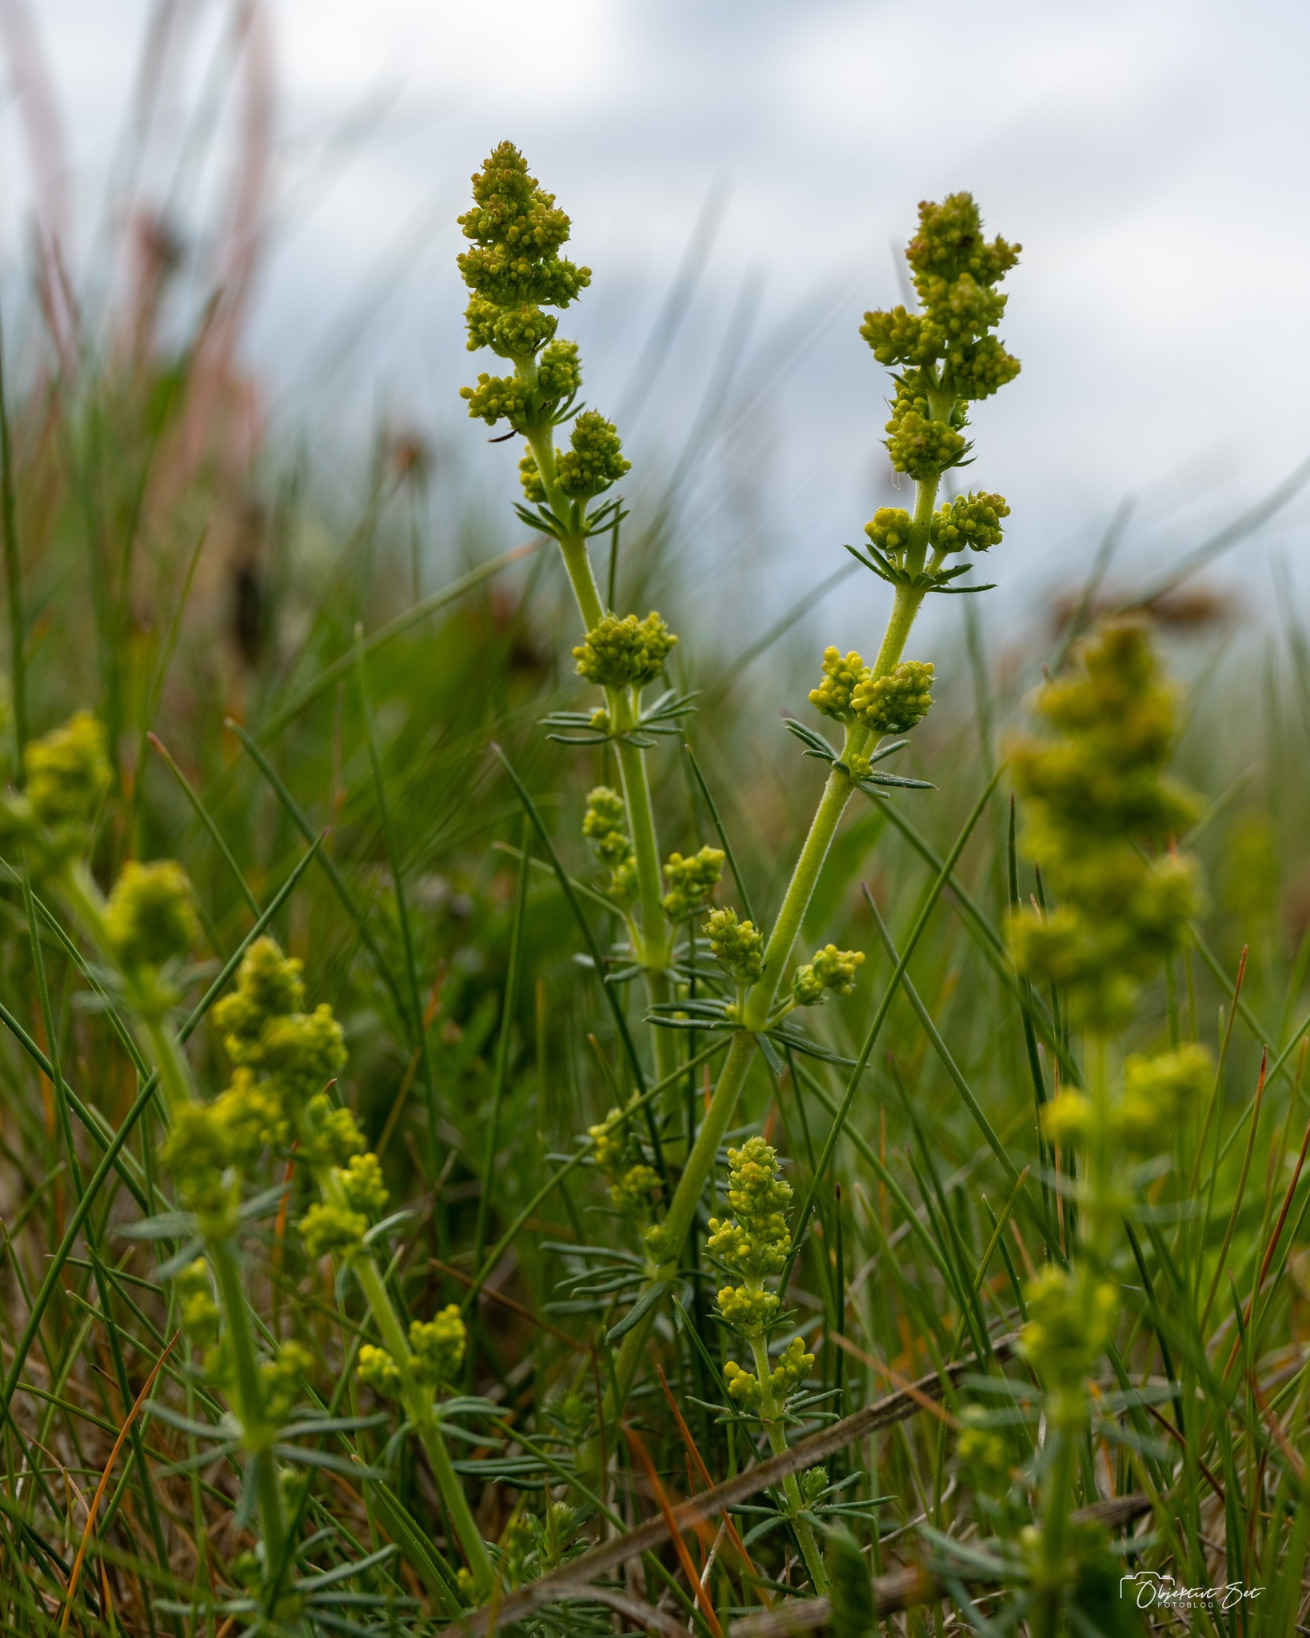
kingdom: Plantae
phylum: Tracheophyta
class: Magnoliopsida
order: Gentianales
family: Rubiaceae
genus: Galium
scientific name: Galium verum
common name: Gul snerre
